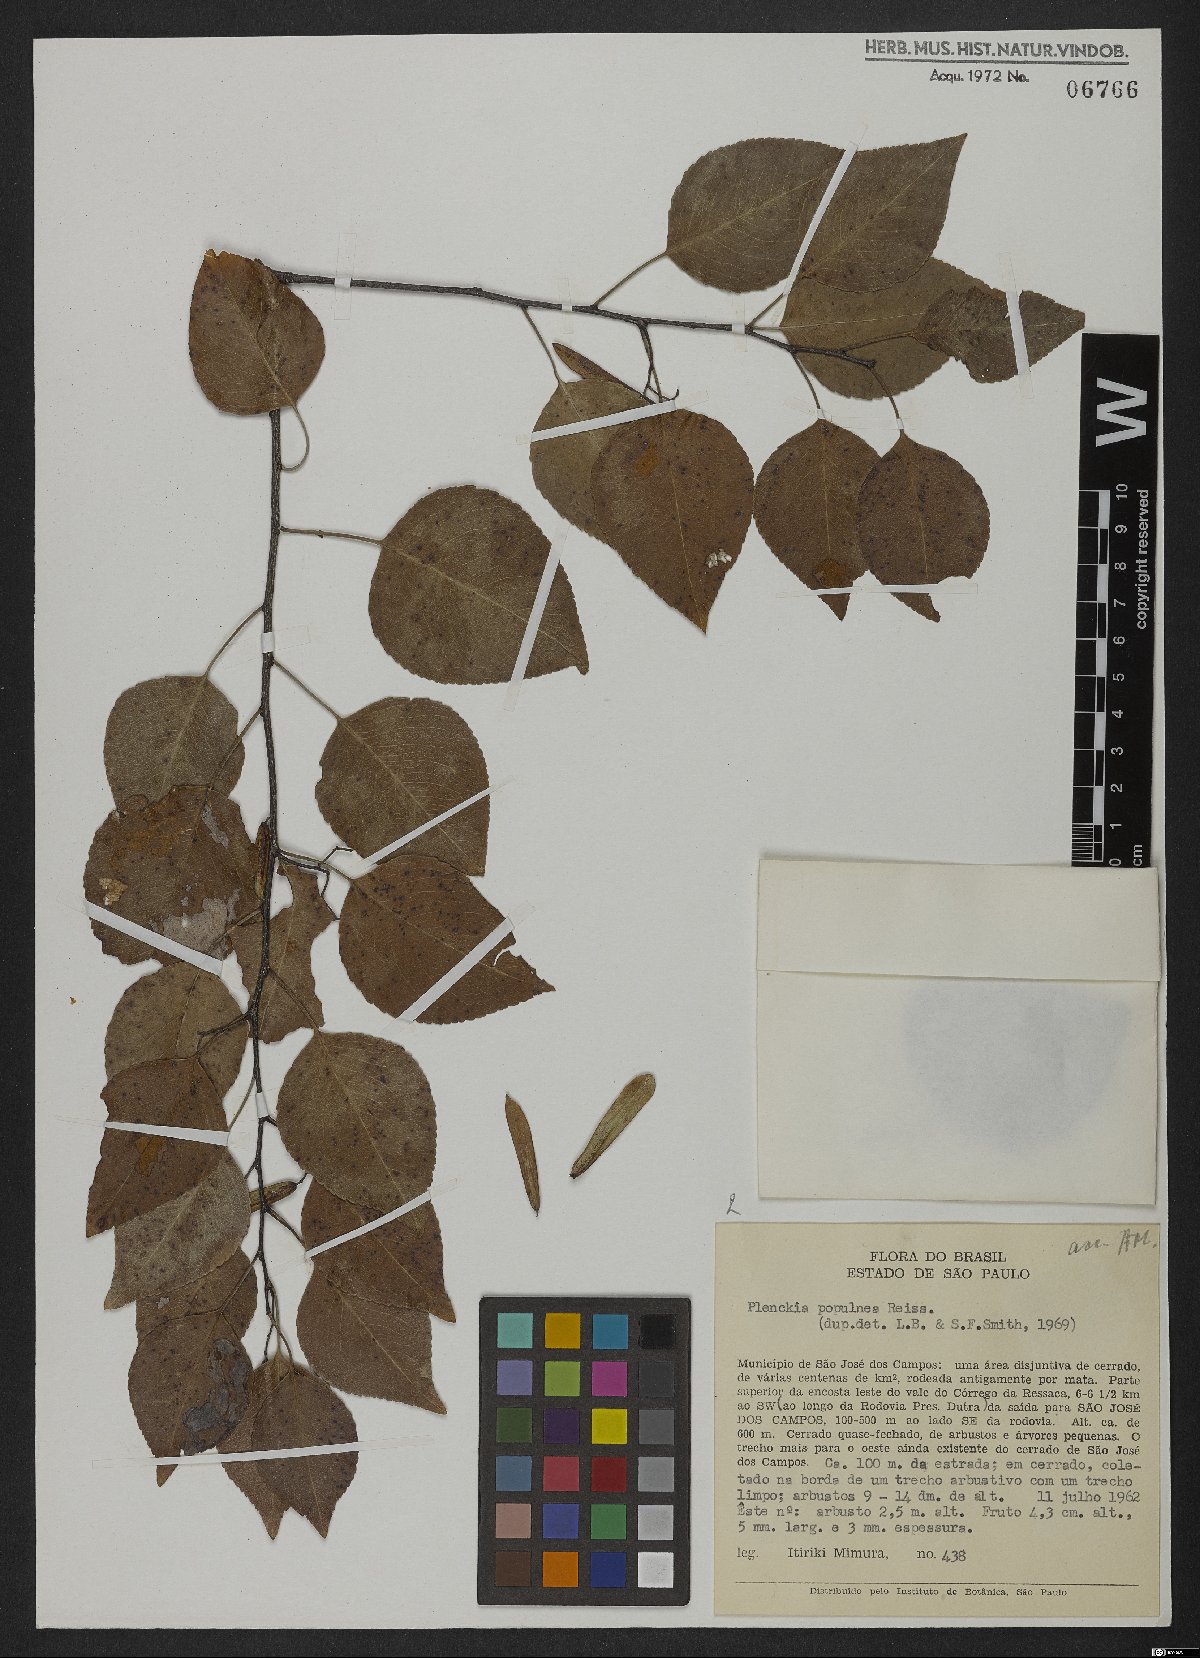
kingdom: Plantae
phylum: Tracheophyta
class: Magnoliopsida
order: Celastrales
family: Celastraceae
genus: Plenckia
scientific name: Plenckia populnea
